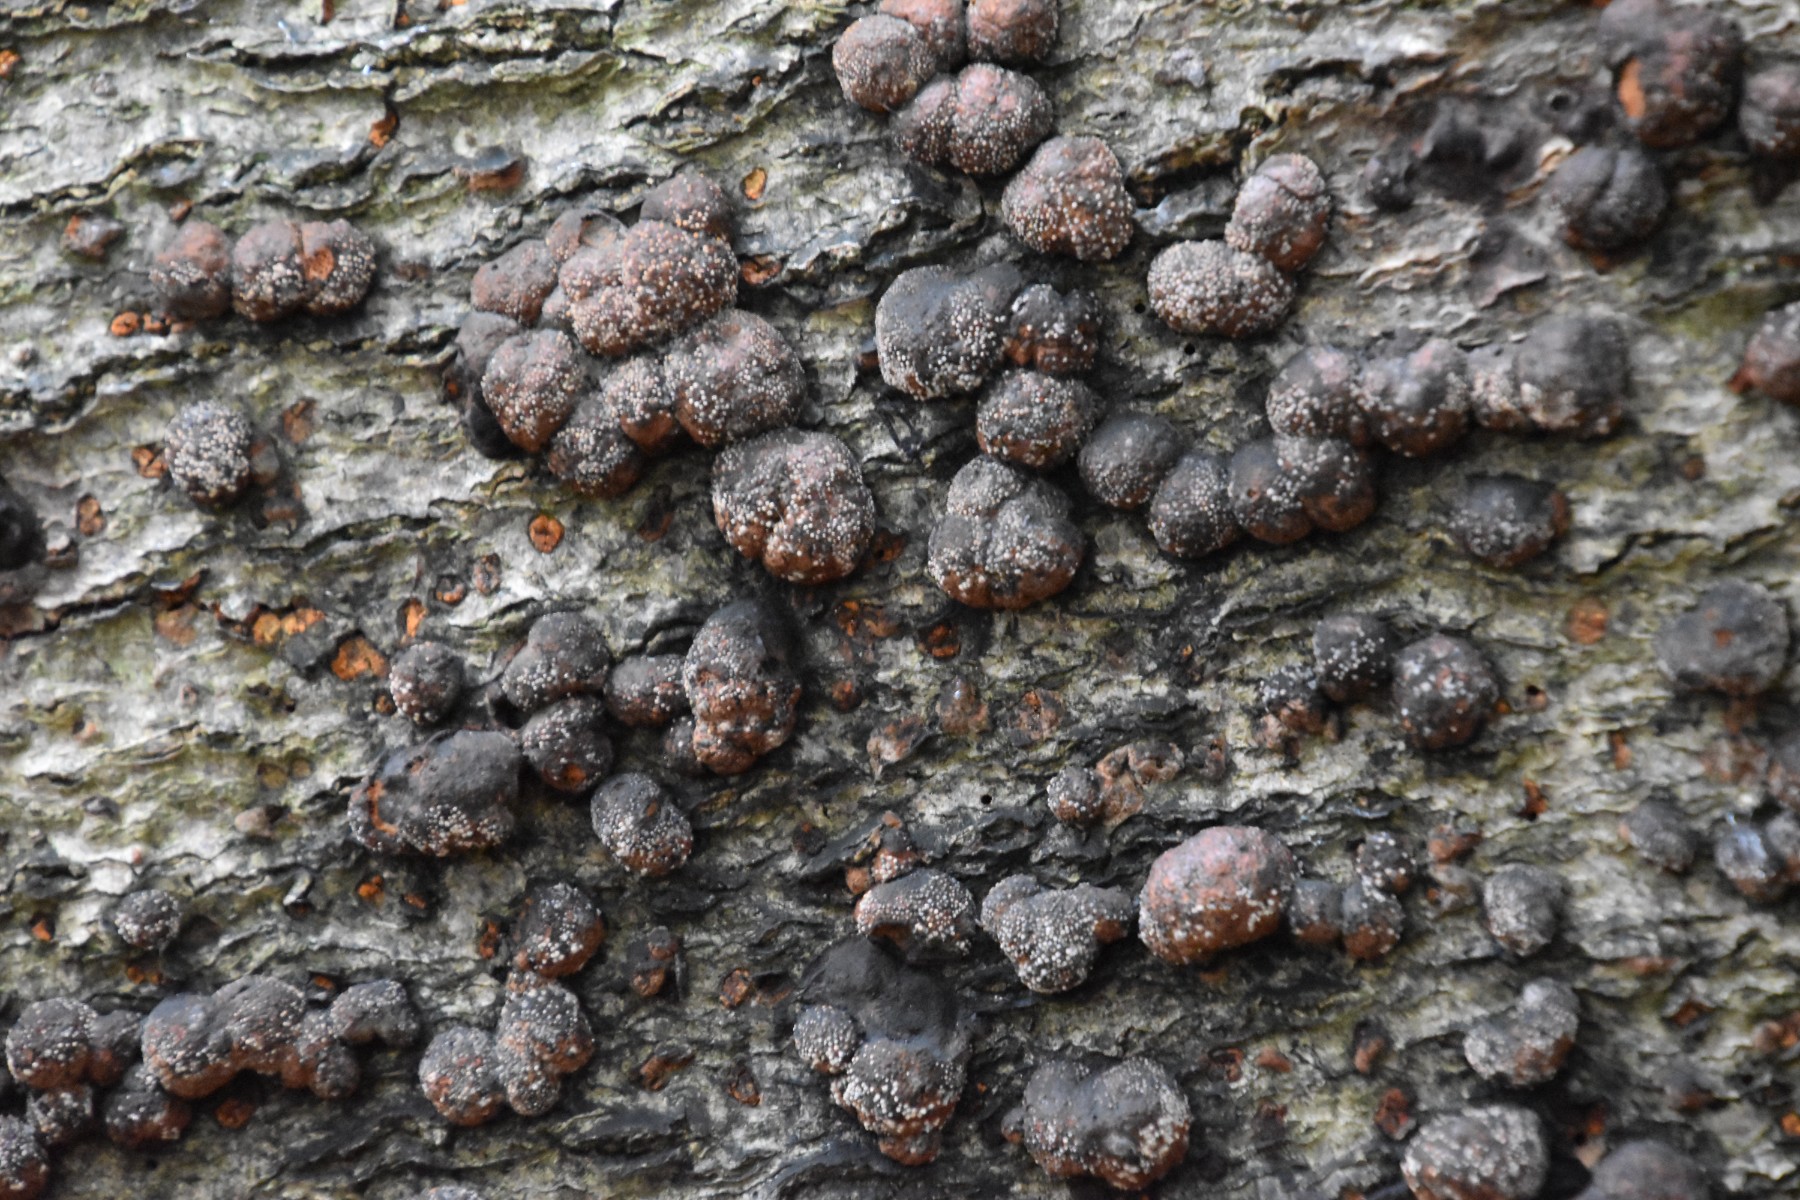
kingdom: Fungi
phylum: Ascomycota
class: Sordariomycetes
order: Xylariales
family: Hypoxylaceae
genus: Hypoxylon
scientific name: Hypoxylon fragiforme
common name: kuljordbær
